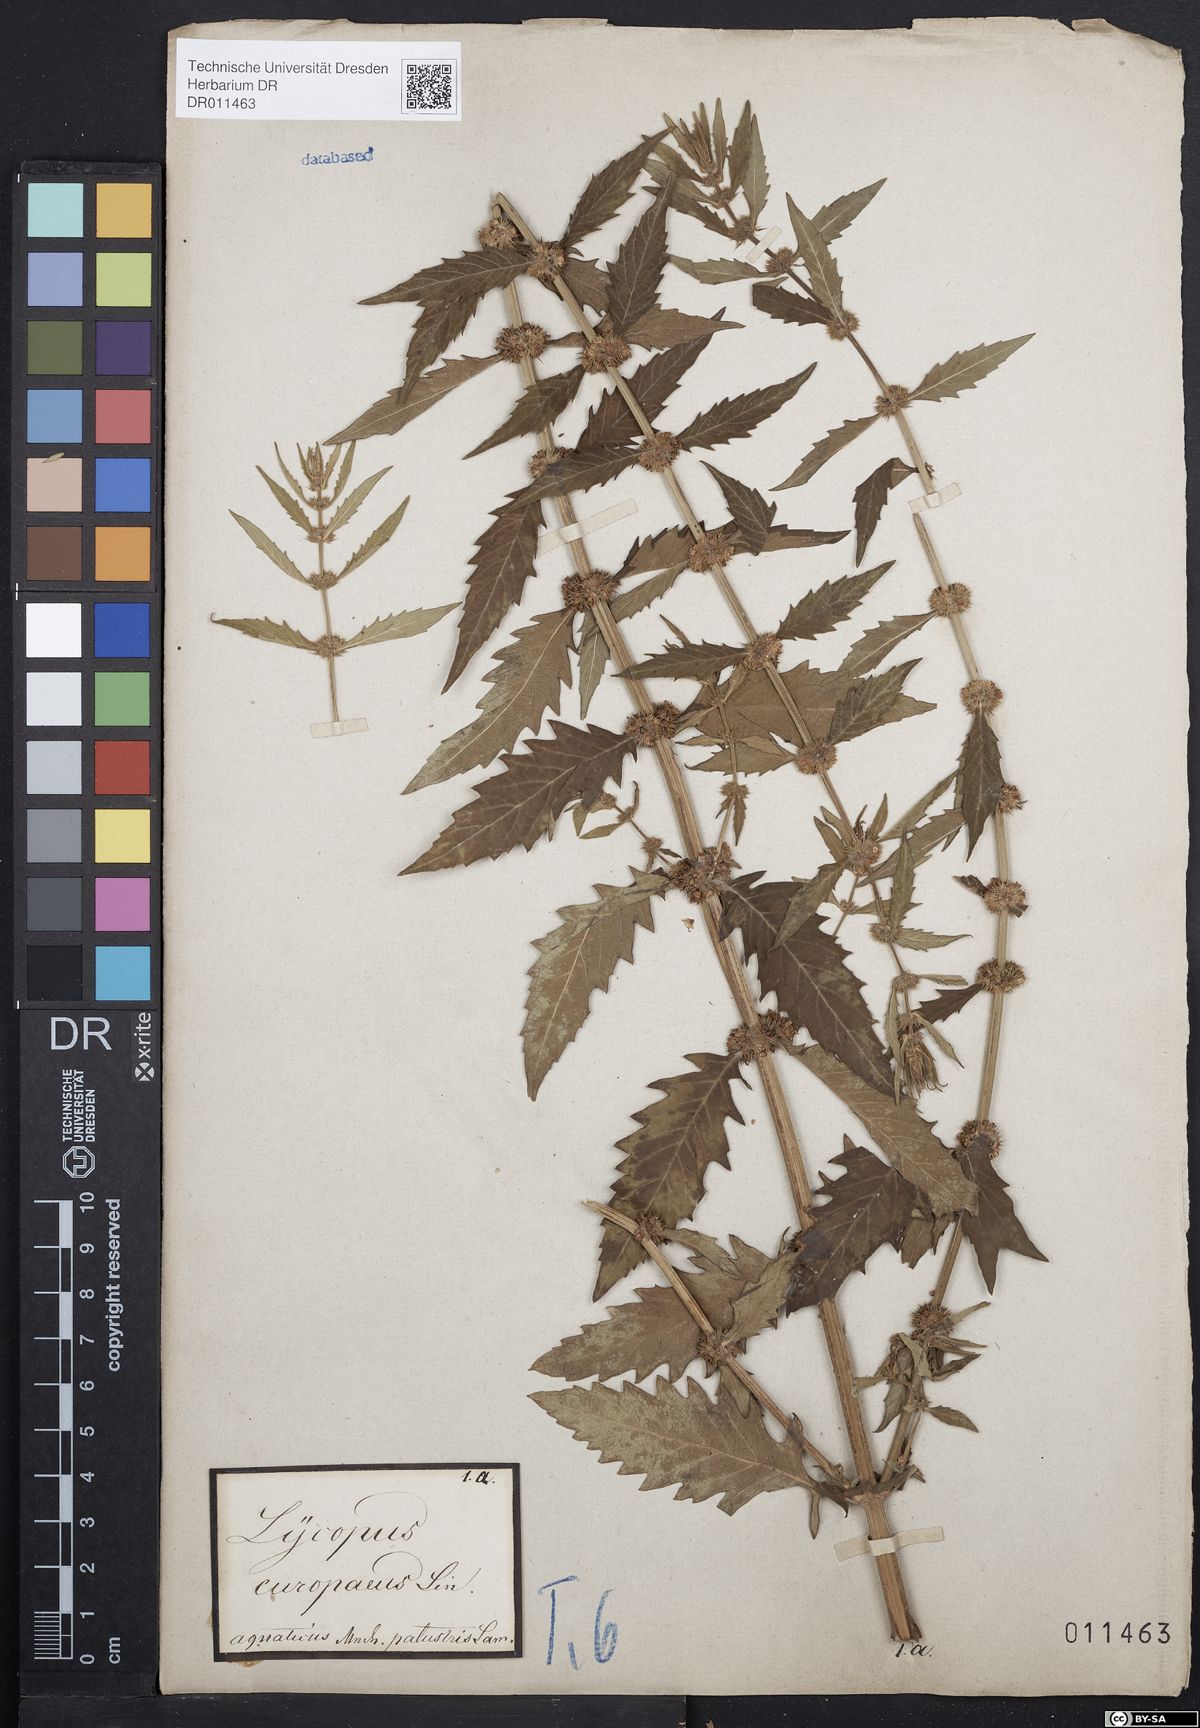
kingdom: Plantae
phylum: Tracheophyta
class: Magnoliopsida
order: Lamiales
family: Lamiaceae
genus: Lycopus
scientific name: Lycopus europaeus
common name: European bugleweed
